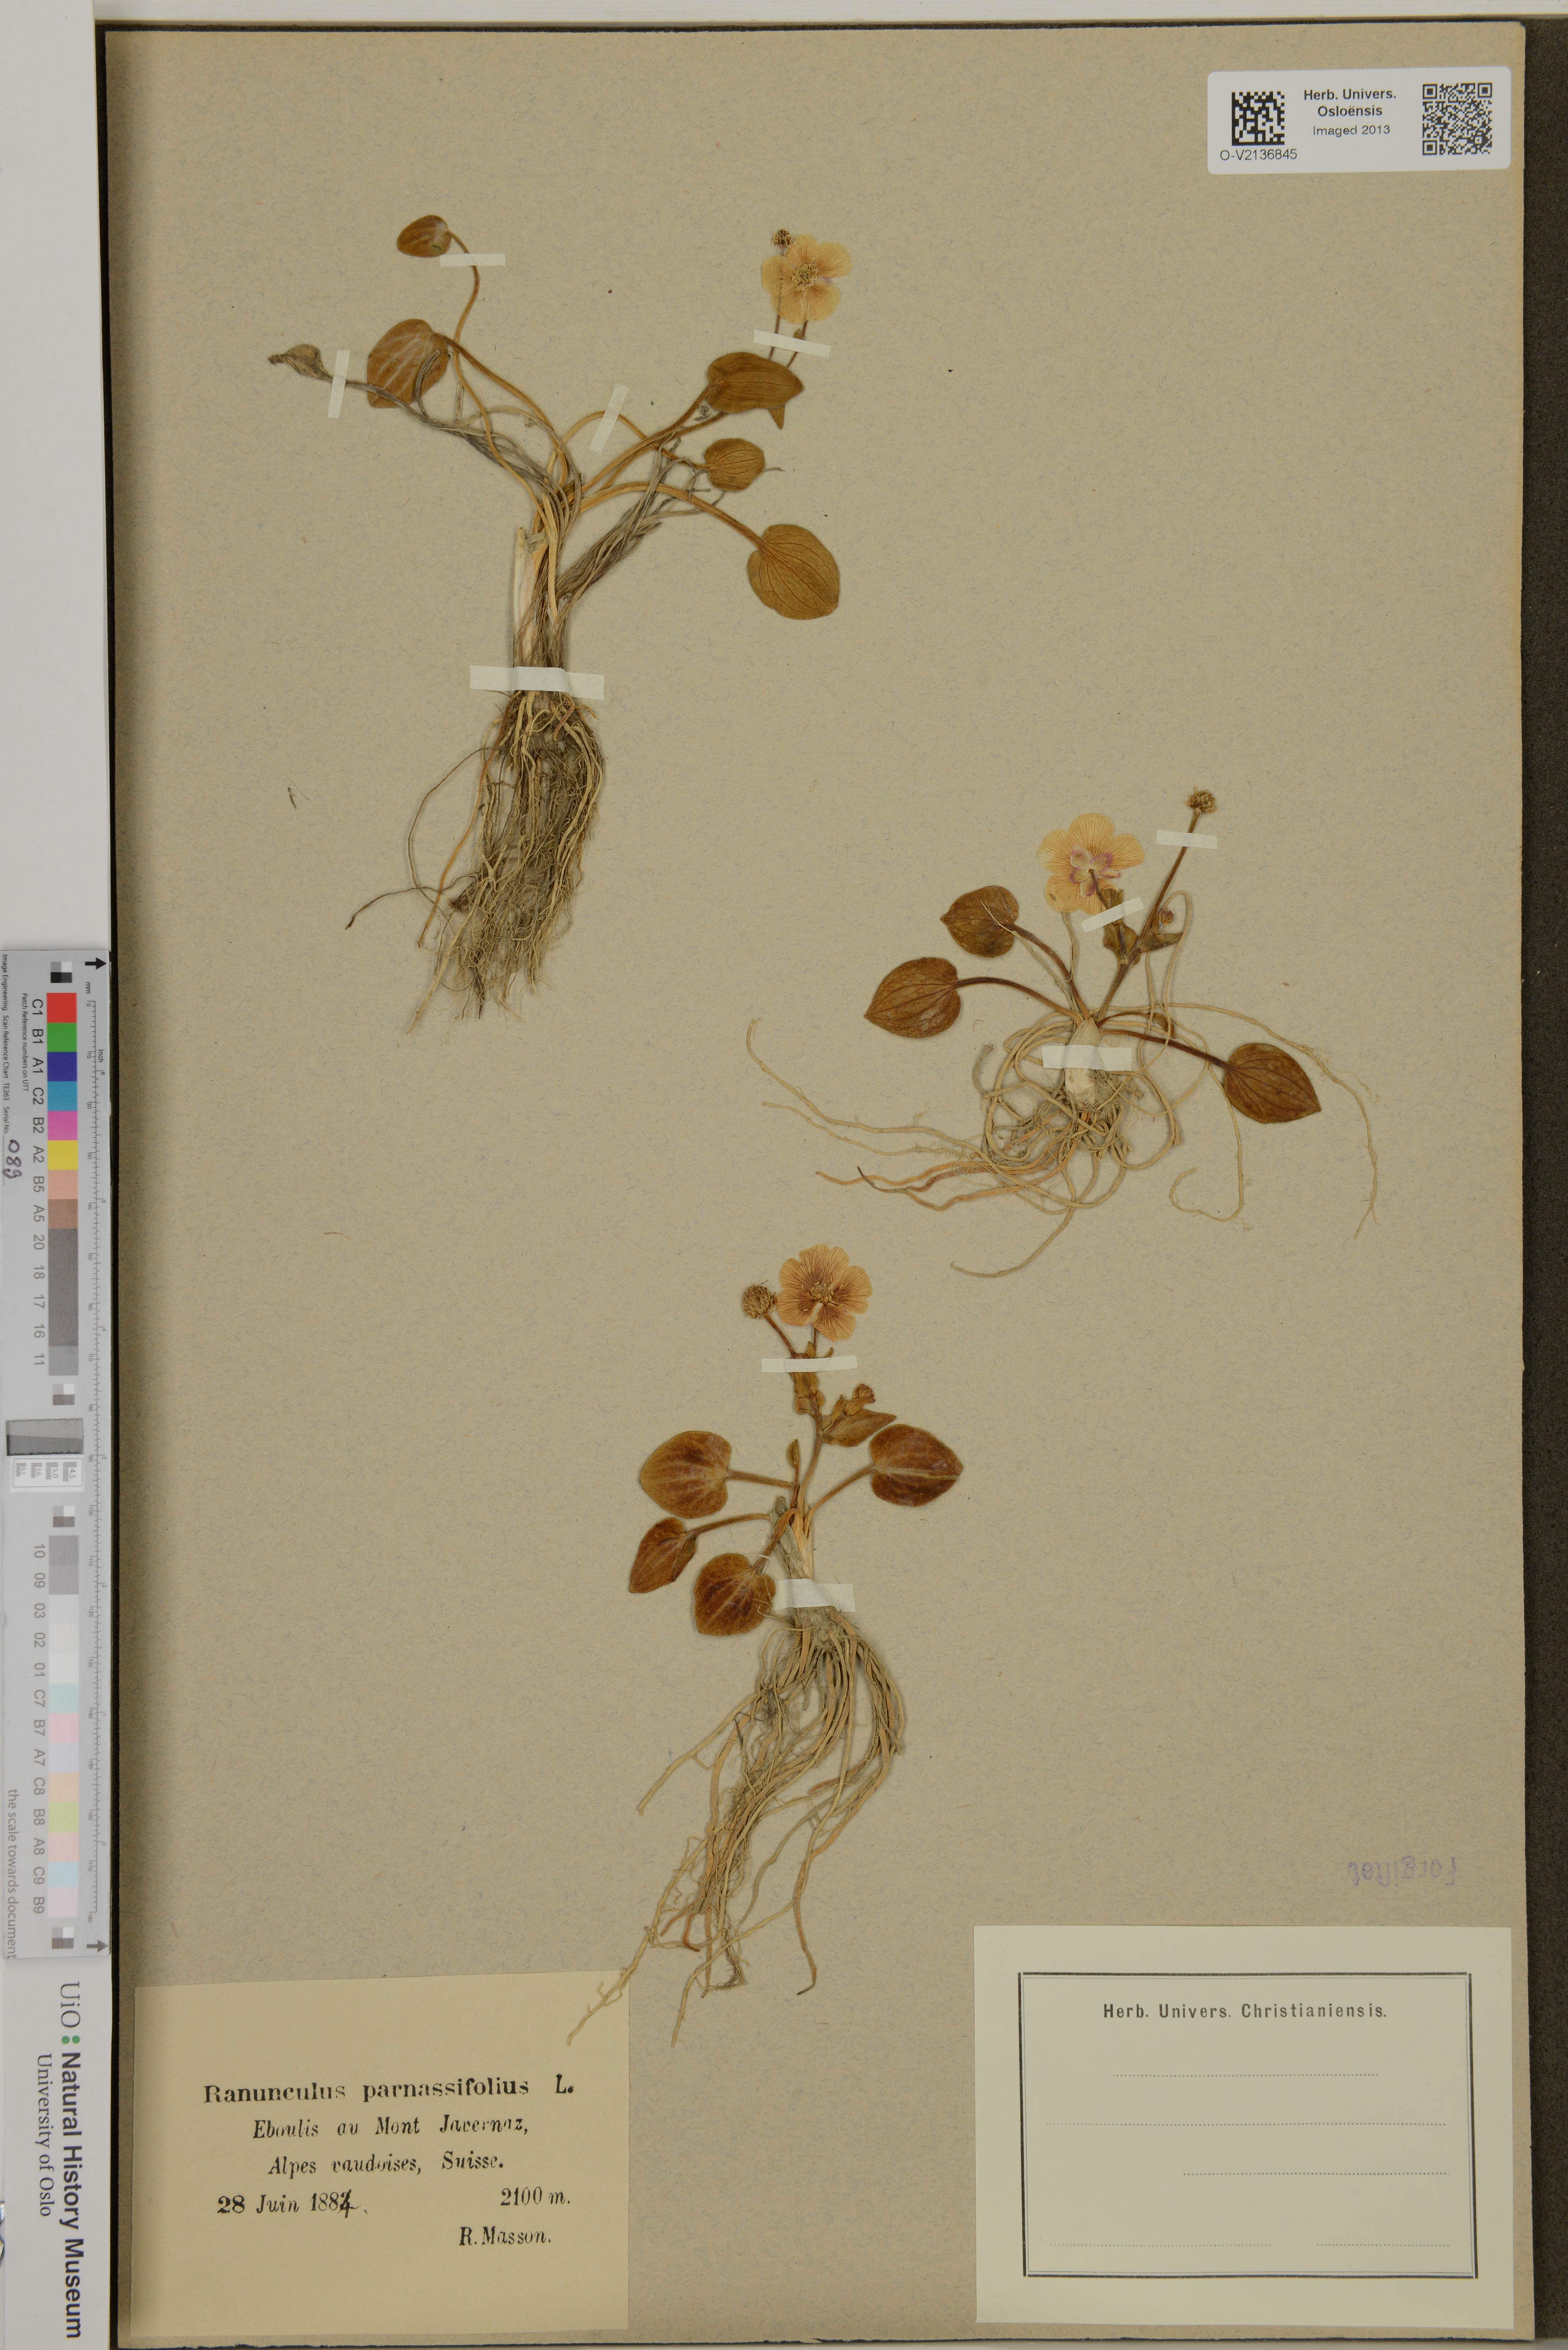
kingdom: Plantae
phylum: Tracheophyta
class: Magnoliopsida
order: Ranunculales
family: Ranunculaceae
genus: Ranunculus
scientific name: Ranunculus parnassiifolius
